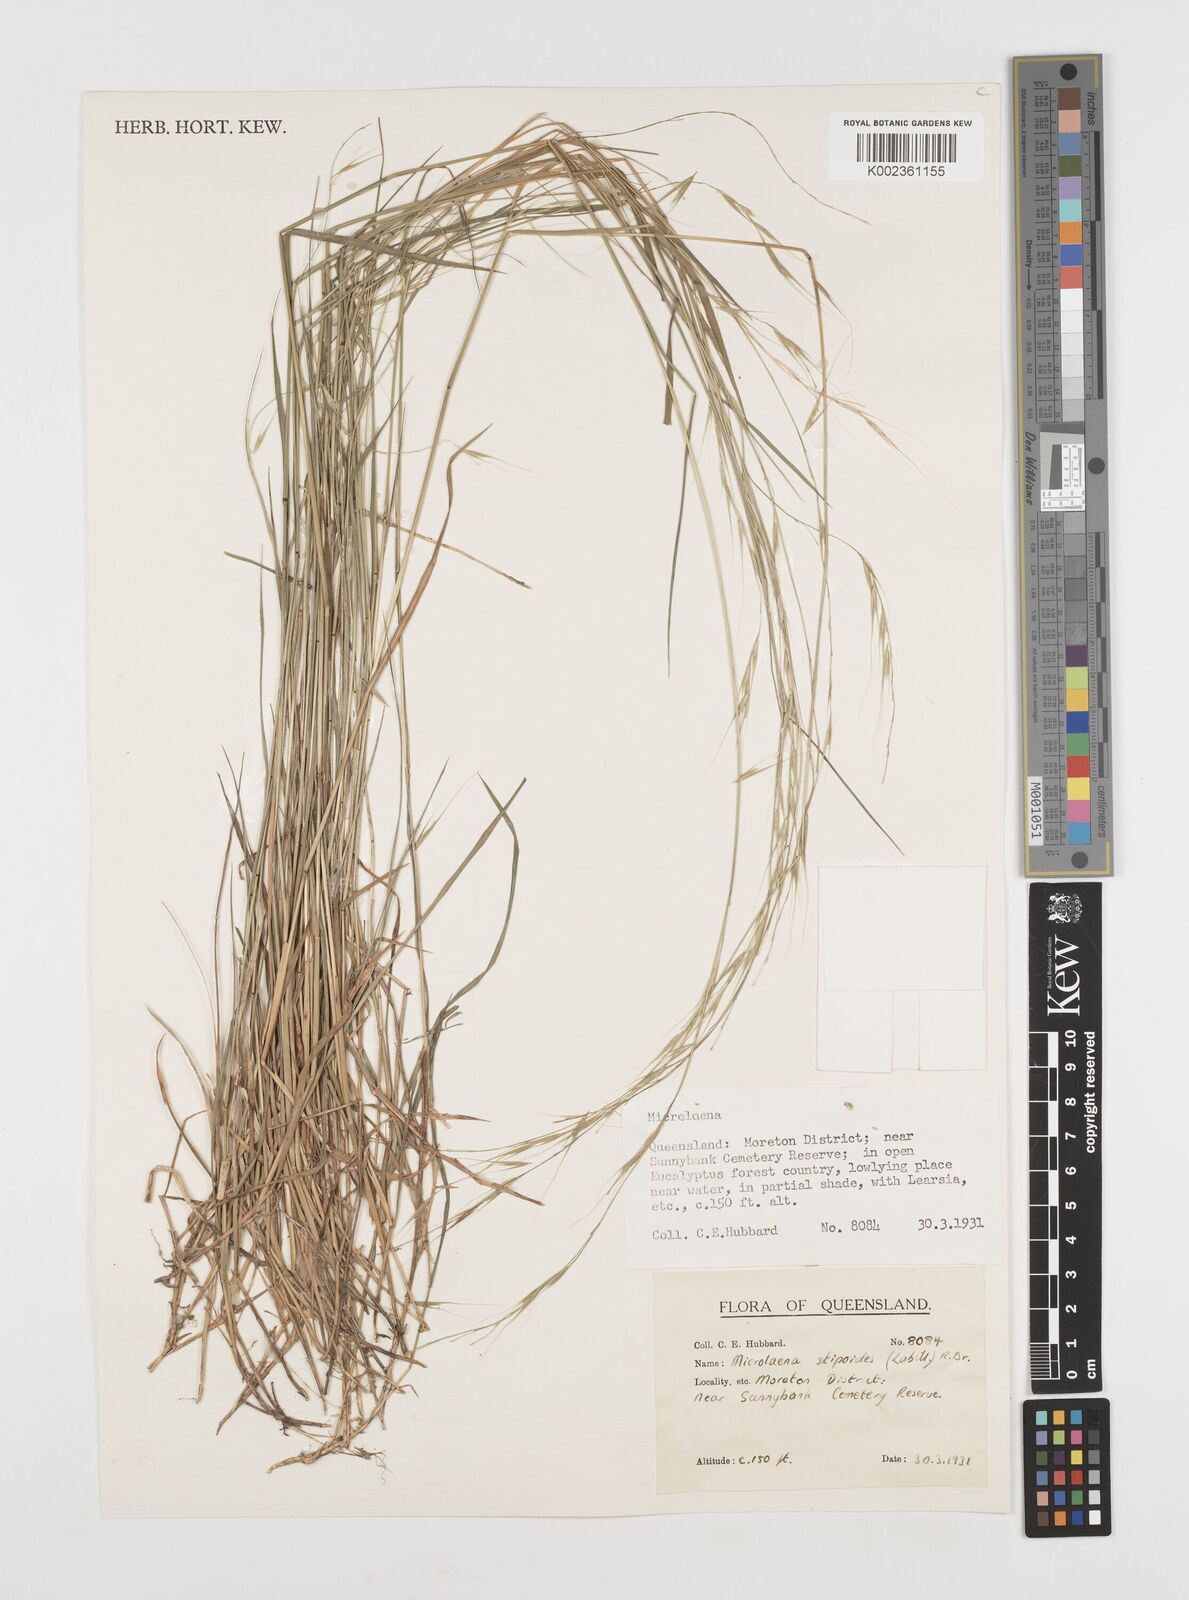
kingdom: Plantae
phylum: Tracheophyta
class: Liliopsida
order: Poales
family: Poaceae
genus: Microlaena
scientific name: Microlaena stipoides
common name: Meadow ricegrass
